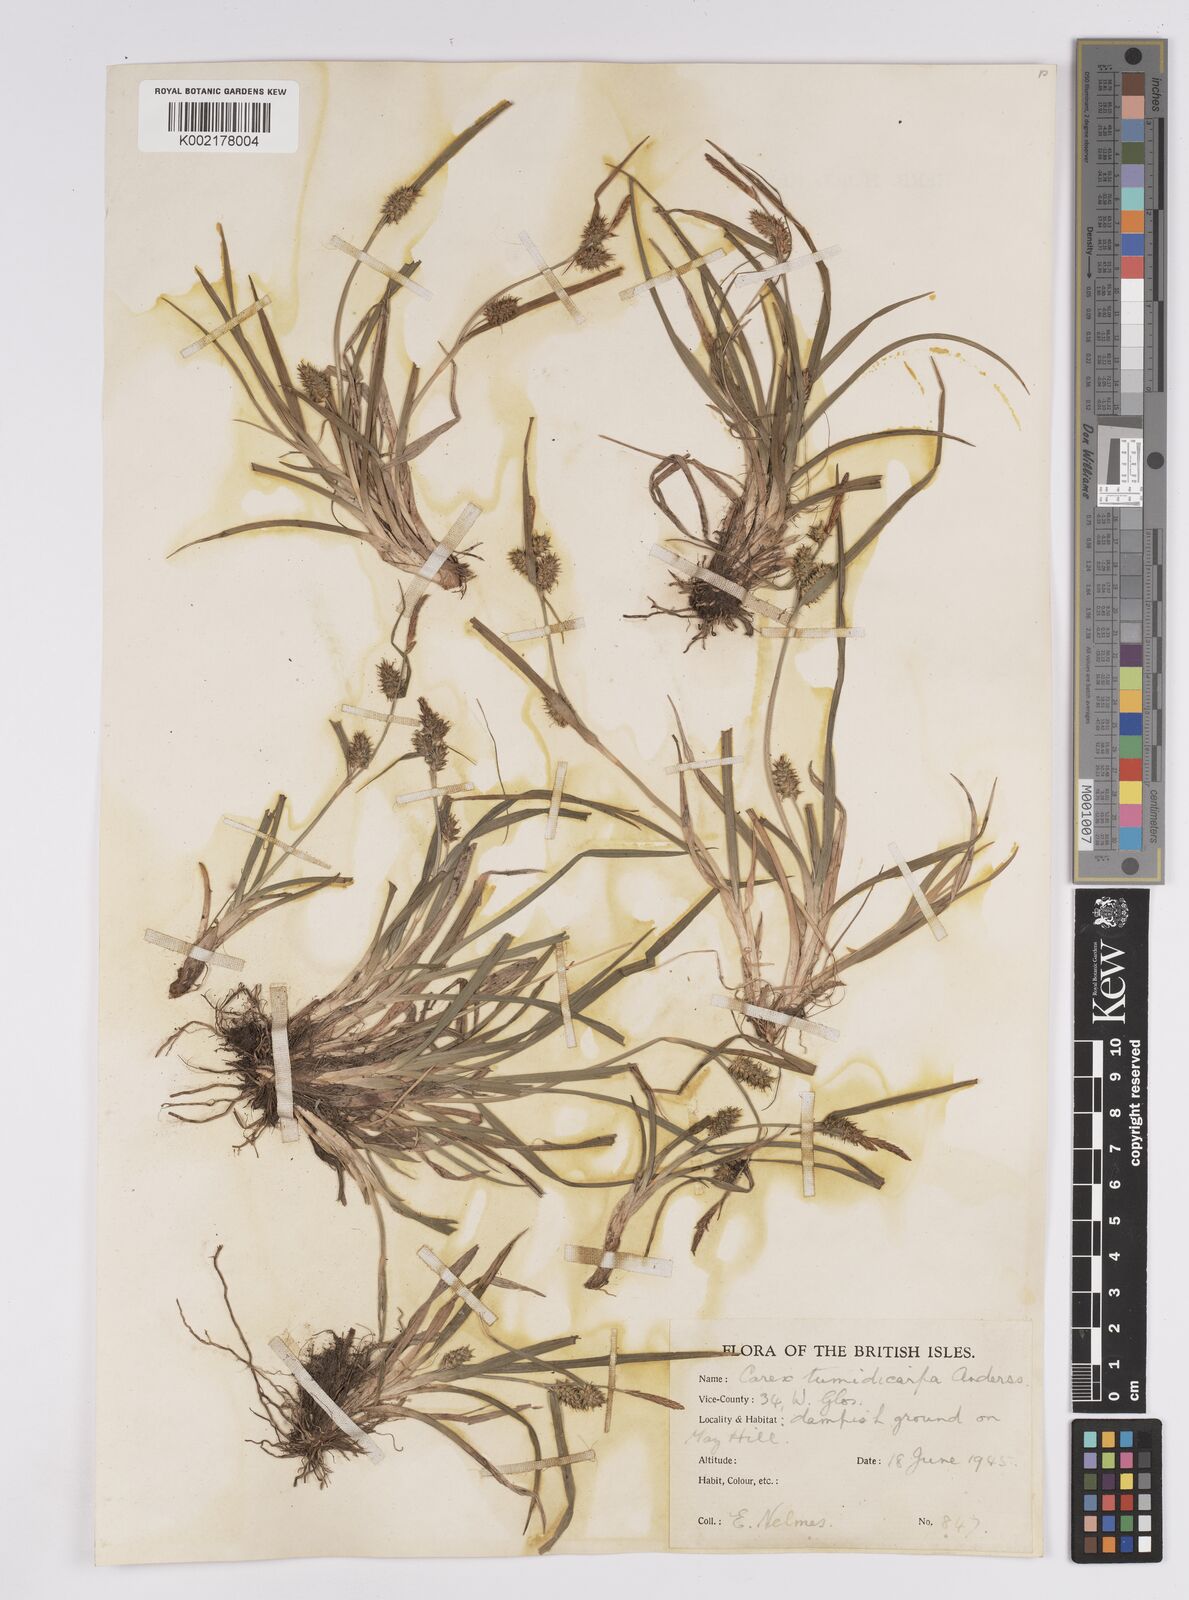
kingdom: Plantae
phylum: Tracheophyta
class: Liliopsida
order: Poales
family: Cyperaceae
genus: Carex
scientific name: Carex demissa
